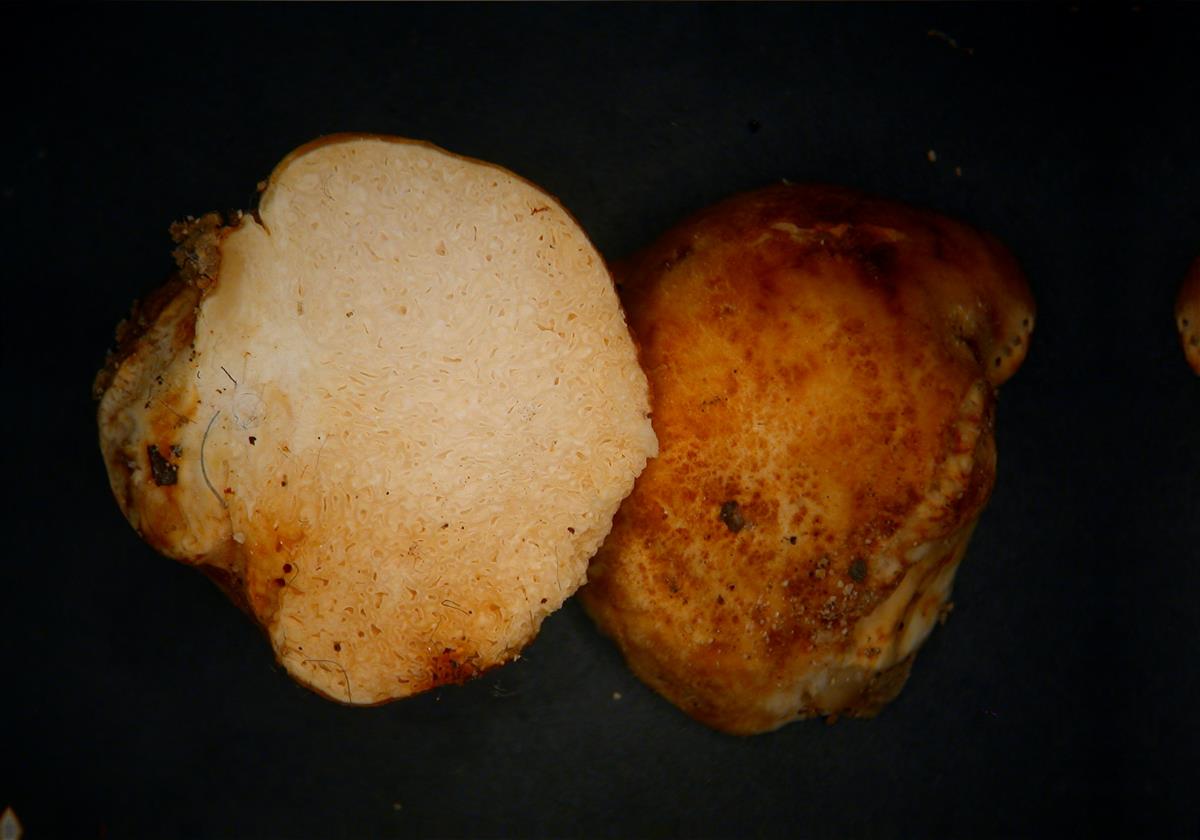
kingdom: Fungi
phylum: Basidiomycota
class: Agaricomycetes
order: Russulales
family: Russulaceae
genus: Russula
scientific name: Russula spinispora
